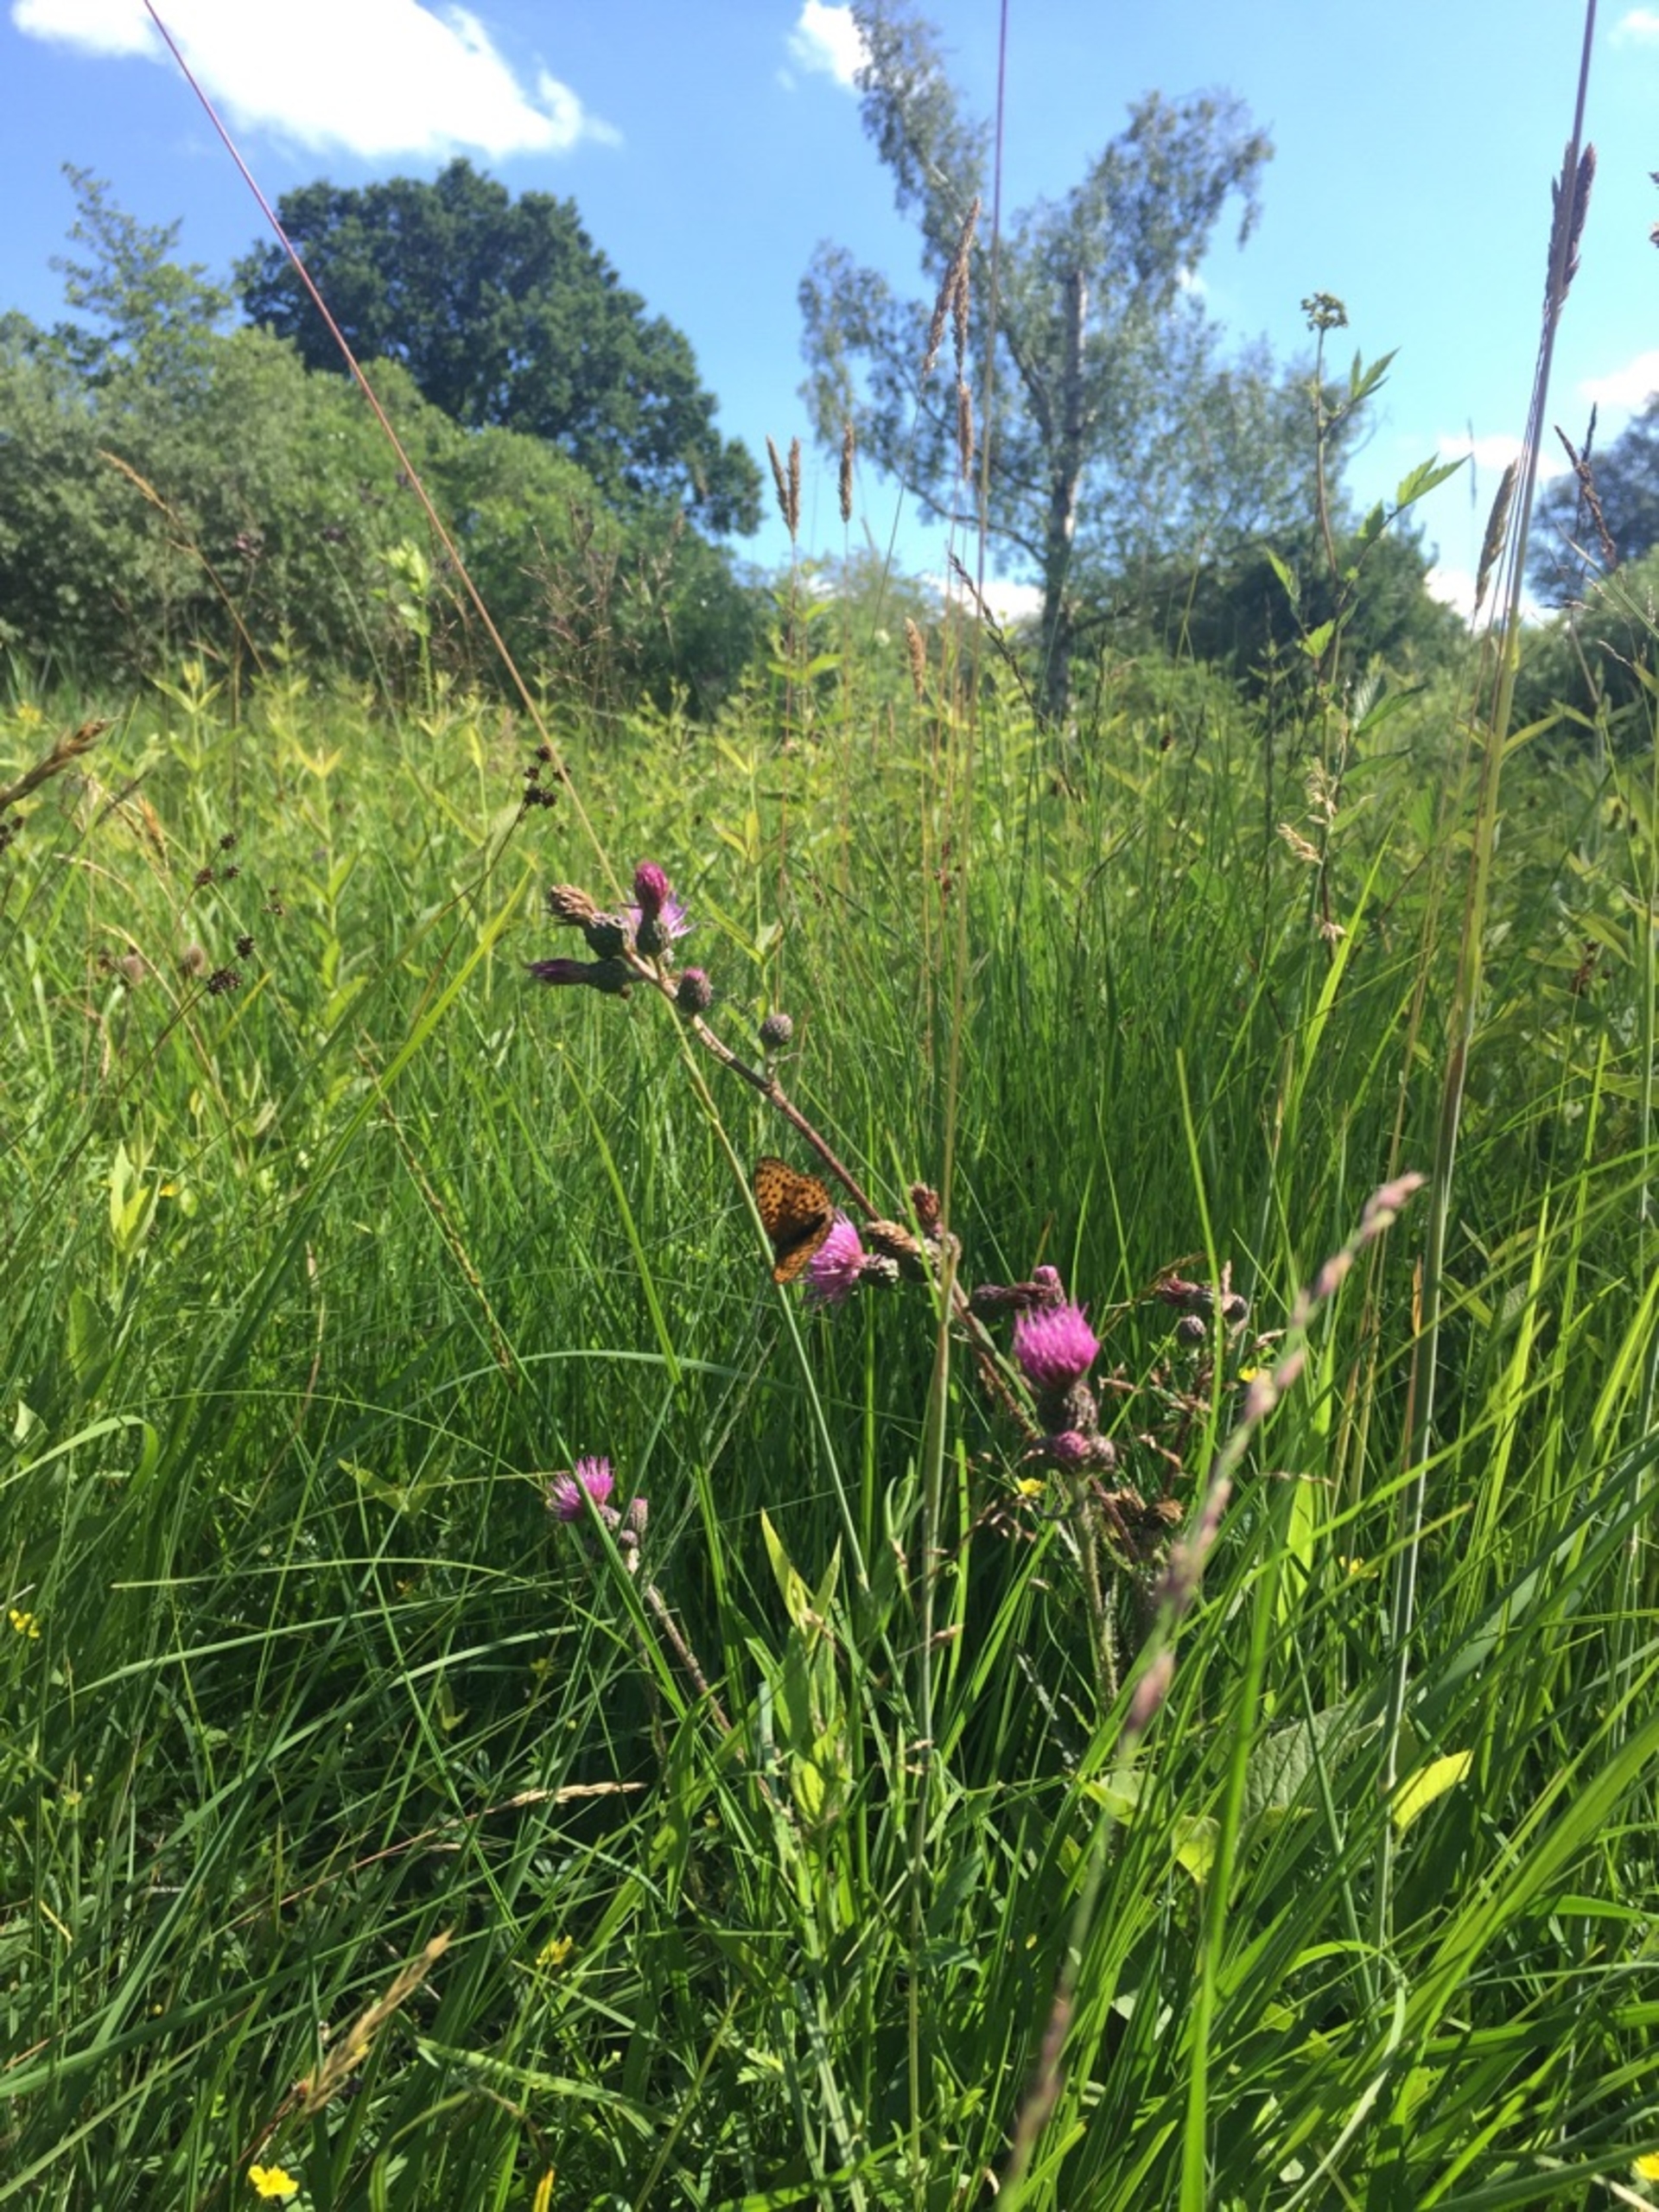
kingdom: Animalia
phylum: Arthropoda
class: Insecta
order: Lepidoptera
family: Nymphalidae
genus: Brenthis
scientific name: Brenthis ino
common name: Engperlemorsommerfugl
